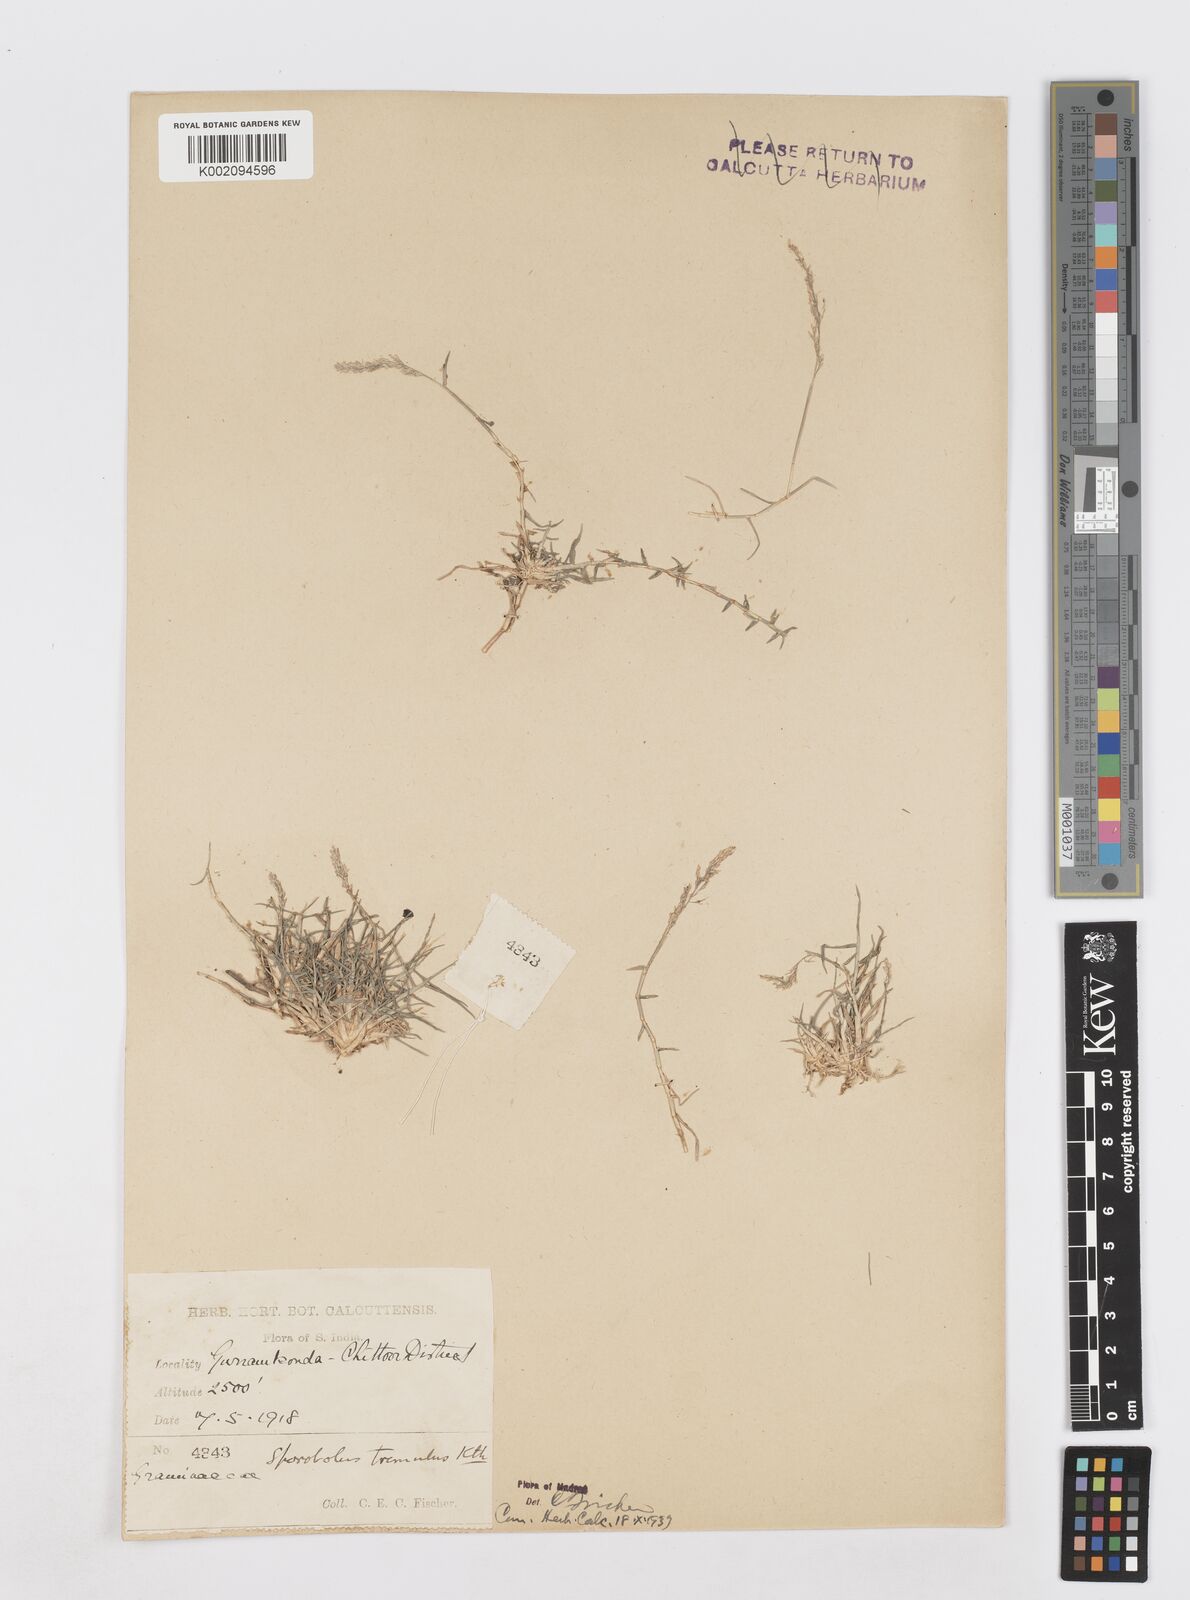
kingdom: Plantae
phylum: Tracheophyta
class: Liliopsida
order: Poales
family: Poaceae
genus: Sporobolus
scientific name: Sporobolus virginicus
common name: Beach dropseed
